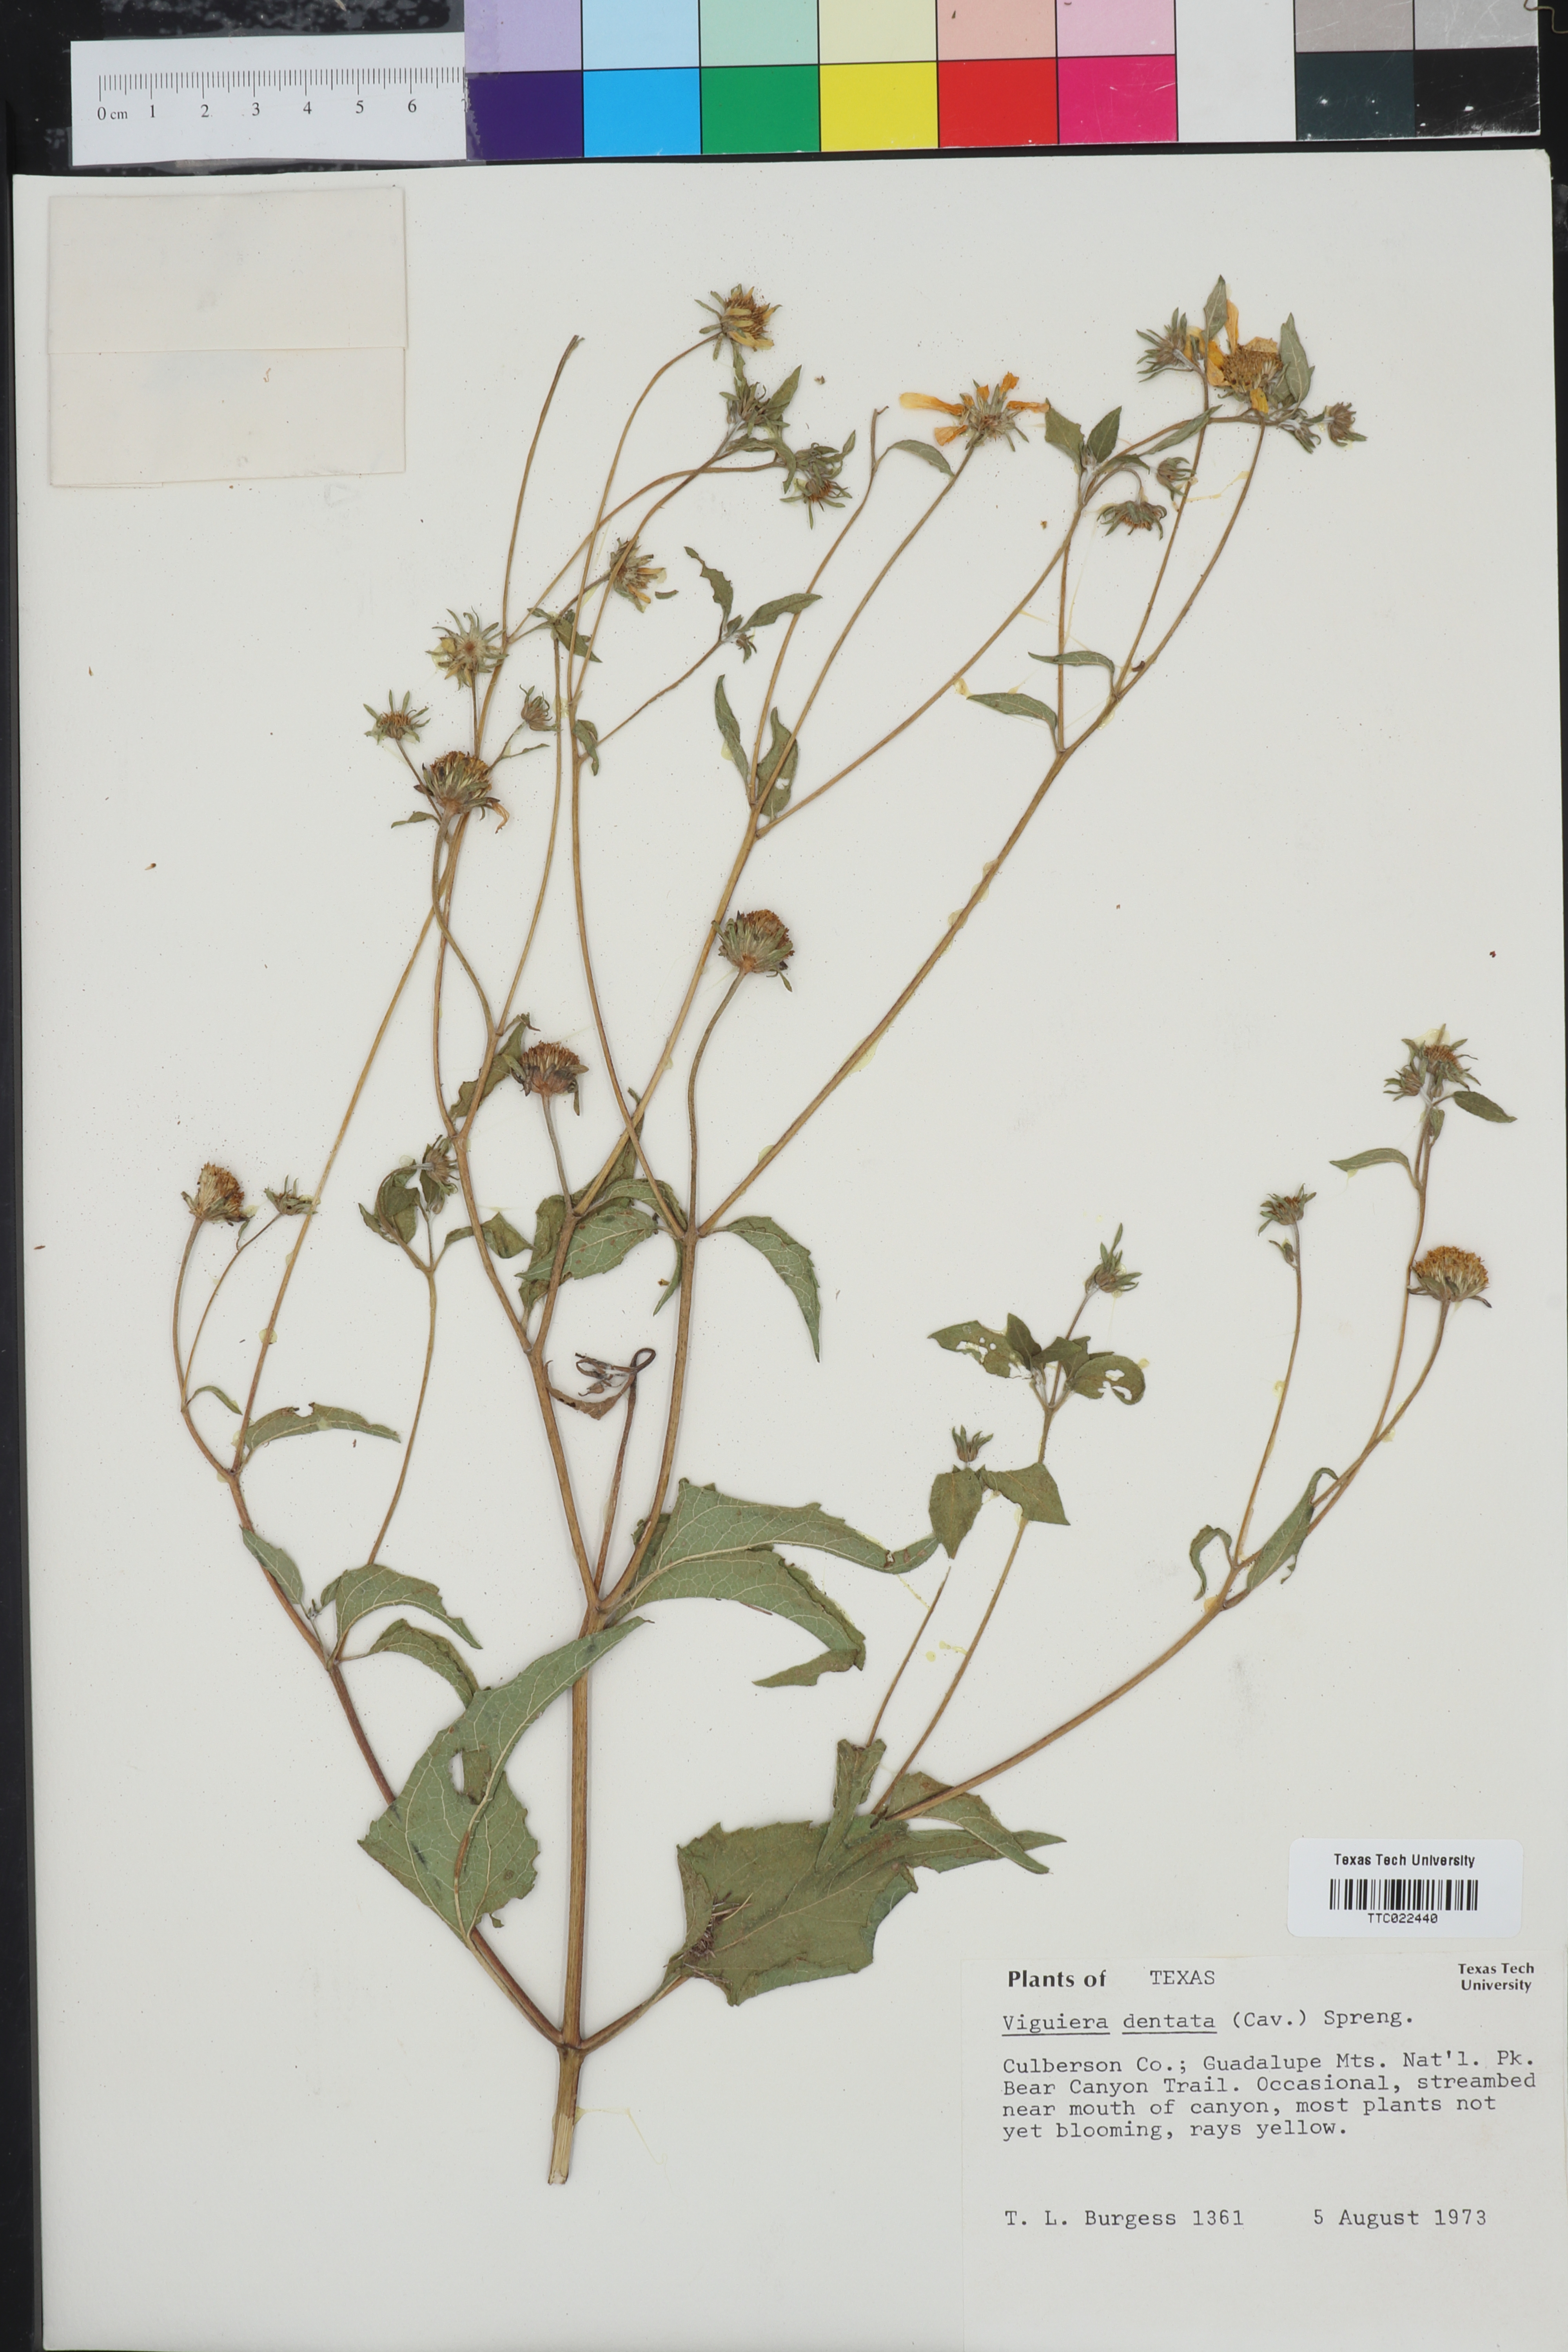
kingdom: Plantae
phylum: Tracheophyta
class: Magnoliopsida
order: Asterales
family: Asteraceae
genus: Viguiera
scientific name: Viguiera dentata
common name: Toothleaf
